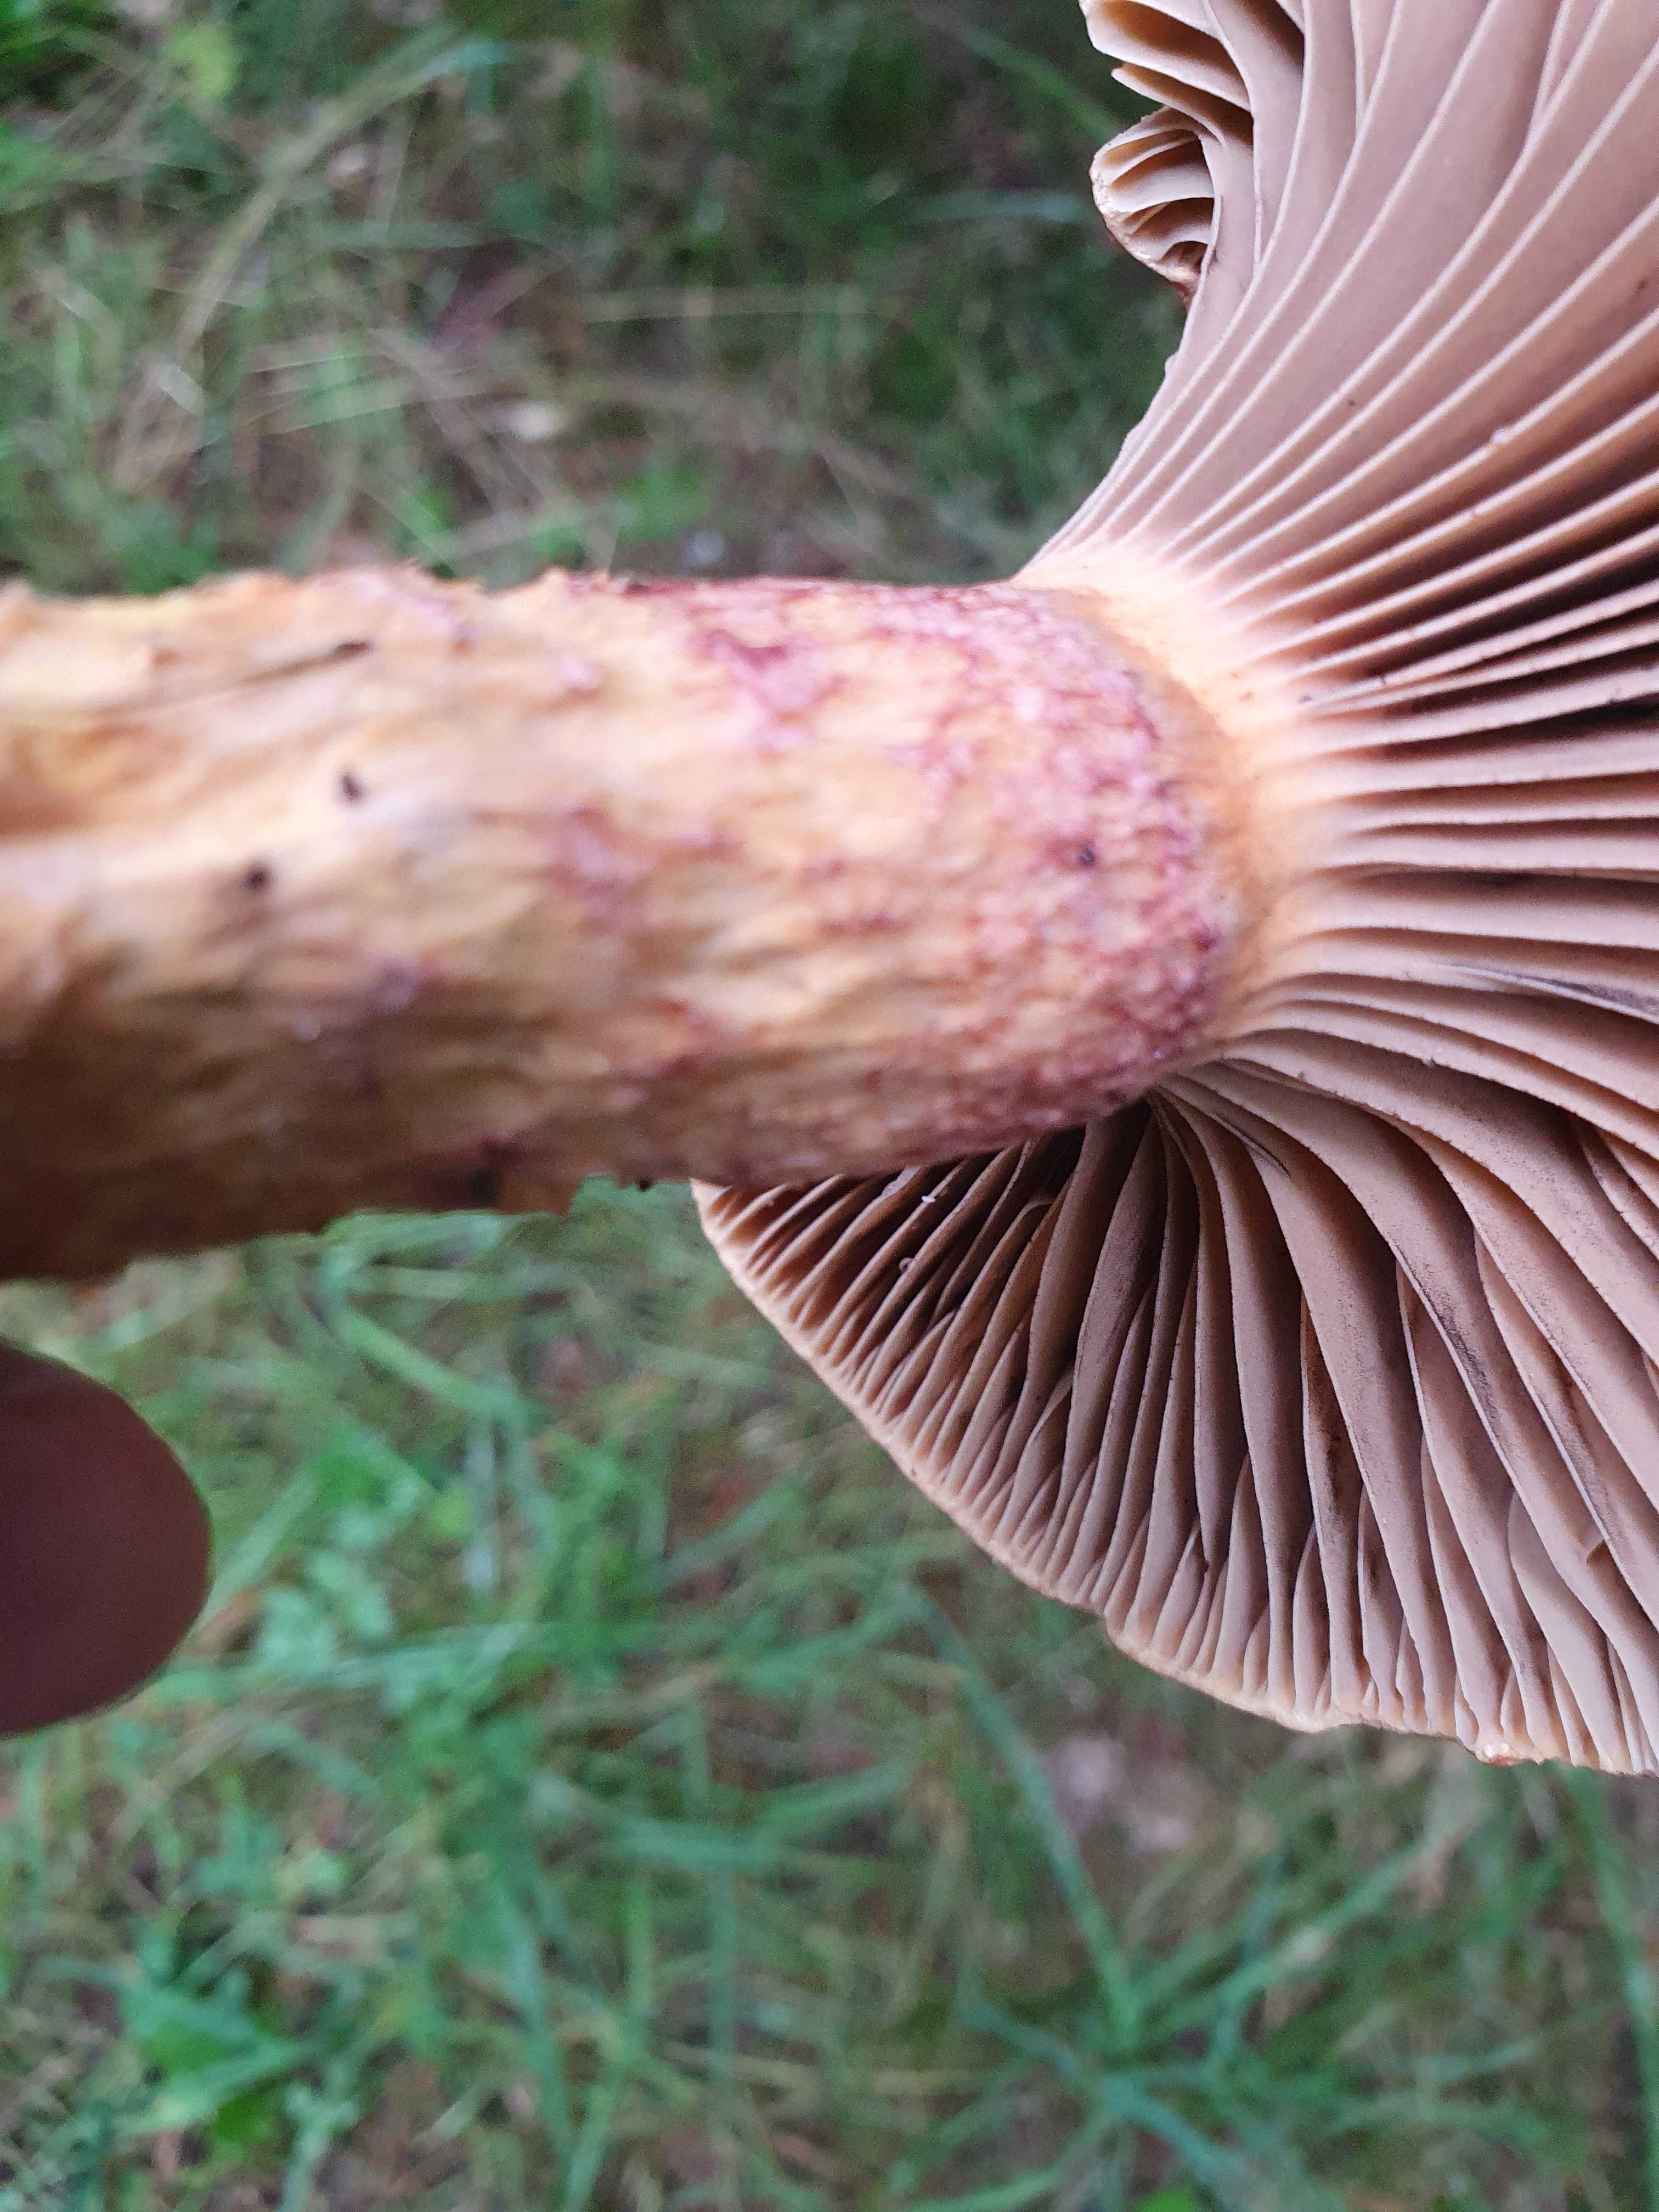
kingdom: Fungi
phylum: Basidiomycota
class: Agaricomycetes
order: Boletales
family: Gomphidiaceae
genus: Chroogomphus
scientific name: Chroogomphus rutilus
